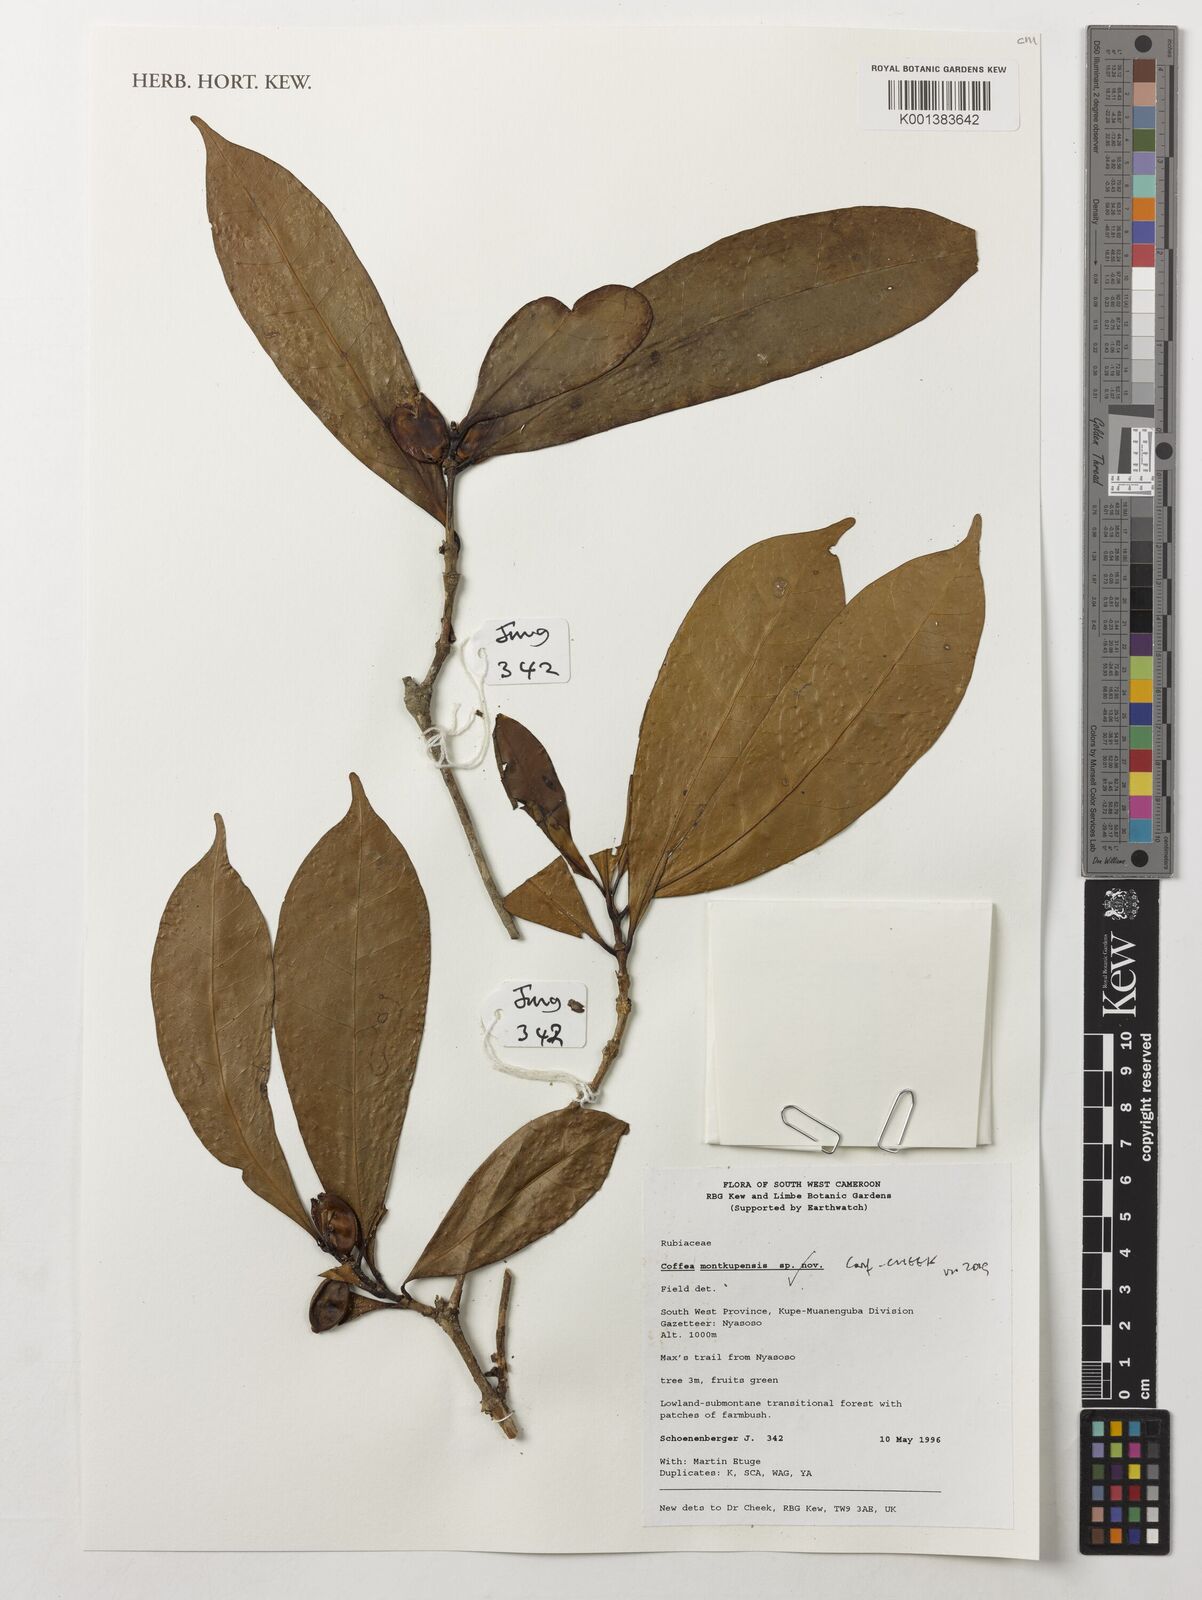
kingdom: Plantae
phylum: Tracheophyta
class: Magnoliopsida
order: Gentianales
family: Rubiaceae
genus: Coffea
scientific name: Coffea montekupensis
